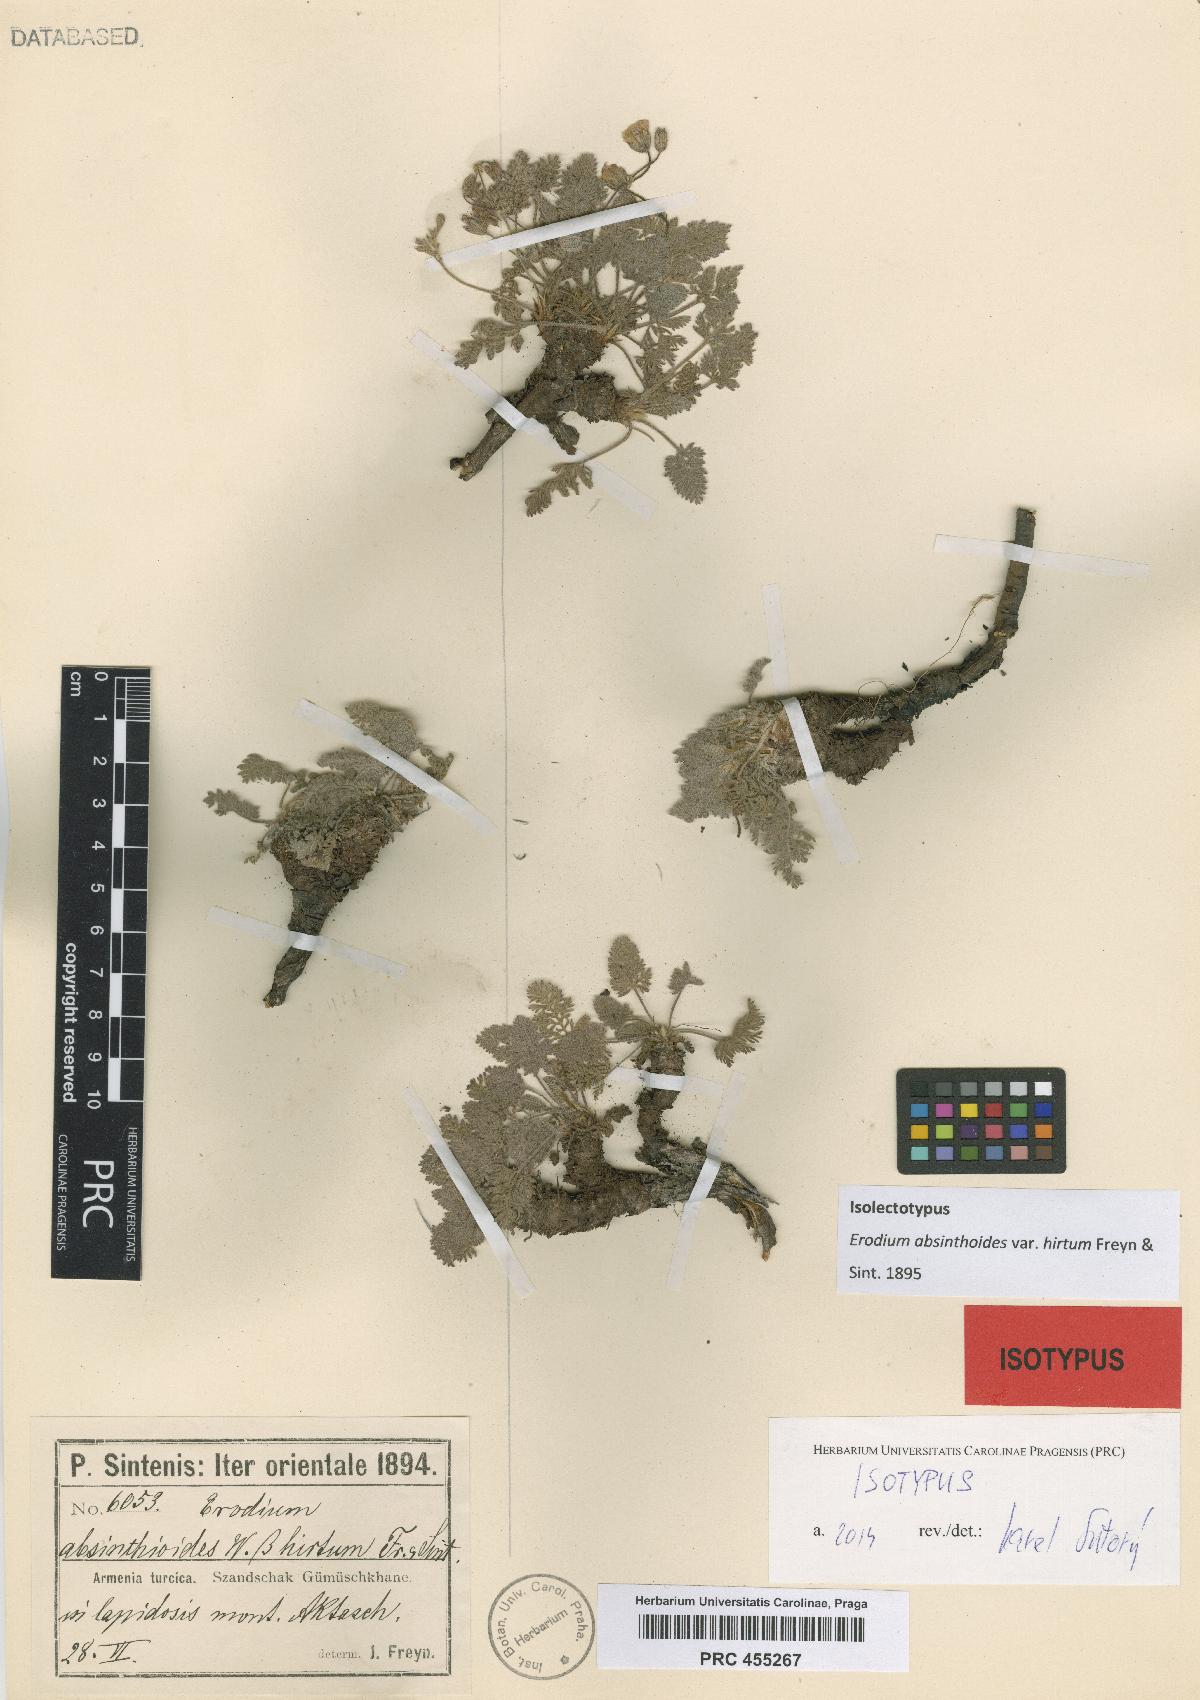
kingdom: Plantae
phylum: Tracheophyta
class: Magnoliopsida
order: Geraniales
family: Geraniaceae
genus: Erodium
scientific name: Erodium absinthoides
